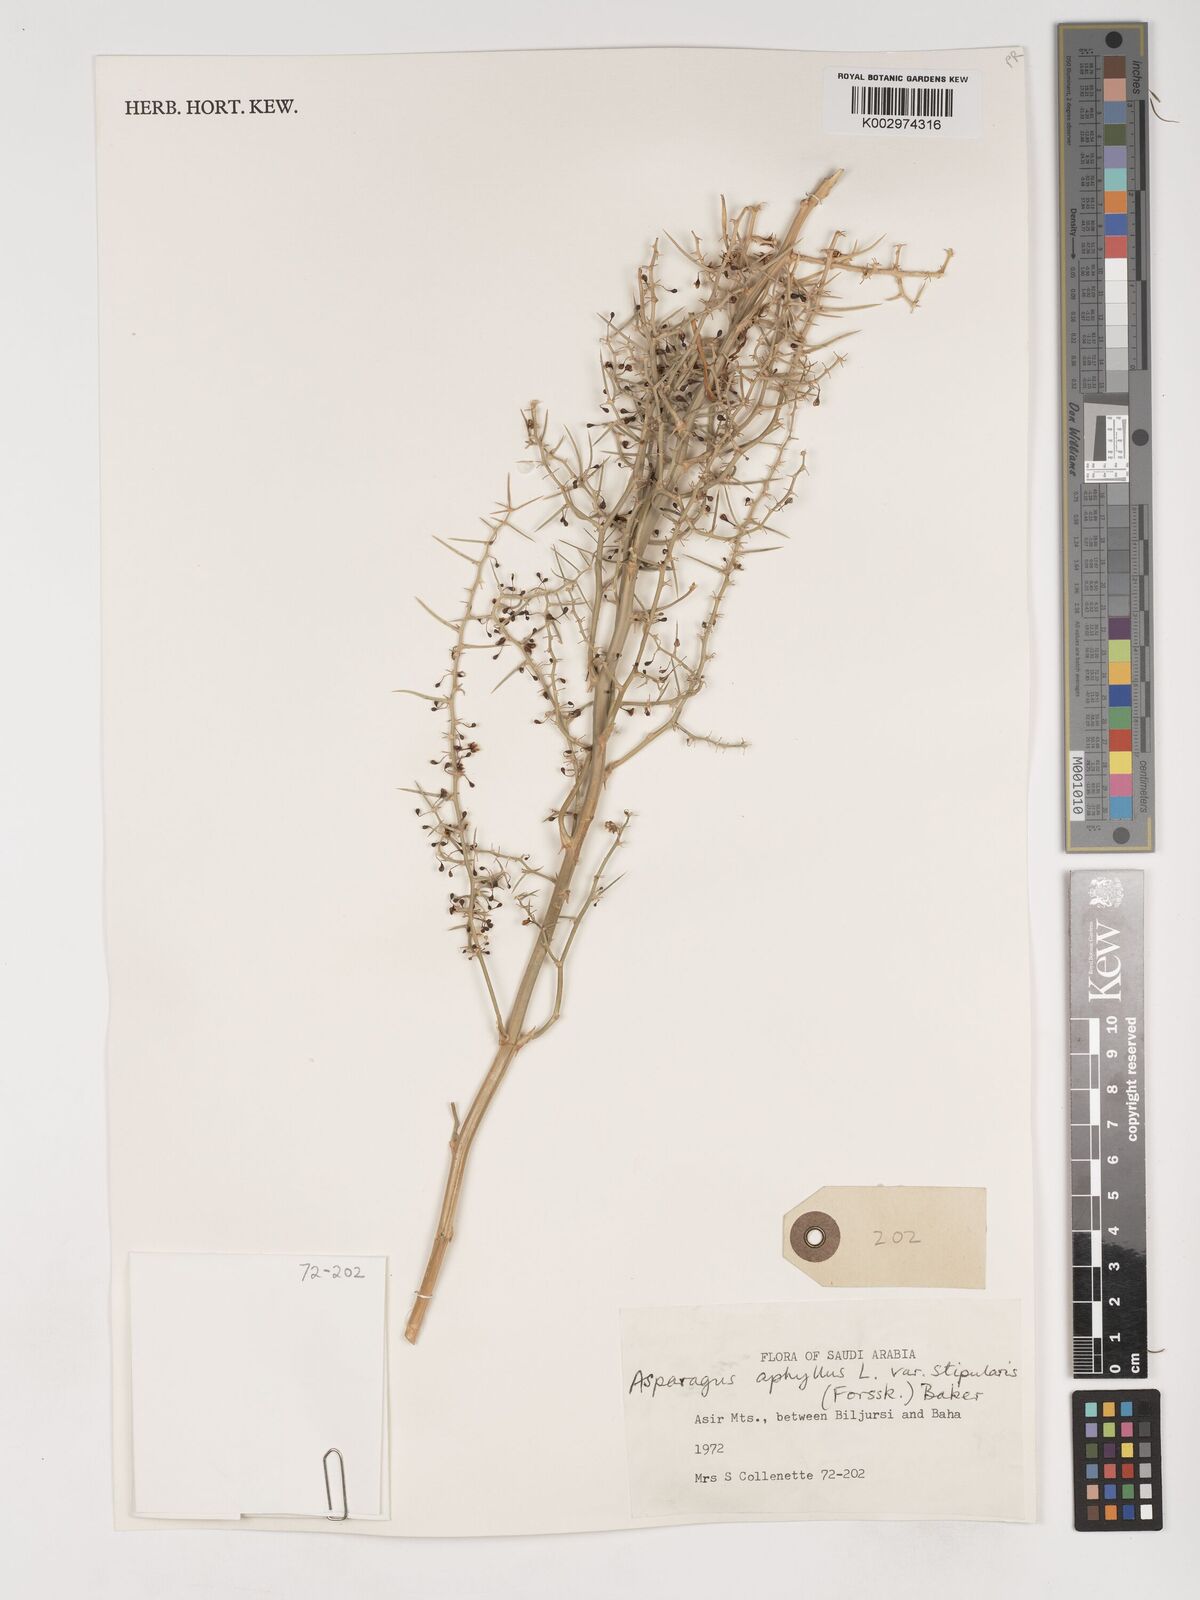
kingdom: Plantae
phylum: Tracheophyta
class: Liliopsida
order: Asparagales
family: Asparagaceae
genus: Asparagus
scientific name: Asparagus aphyllus
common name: Mediterranean asparagus
